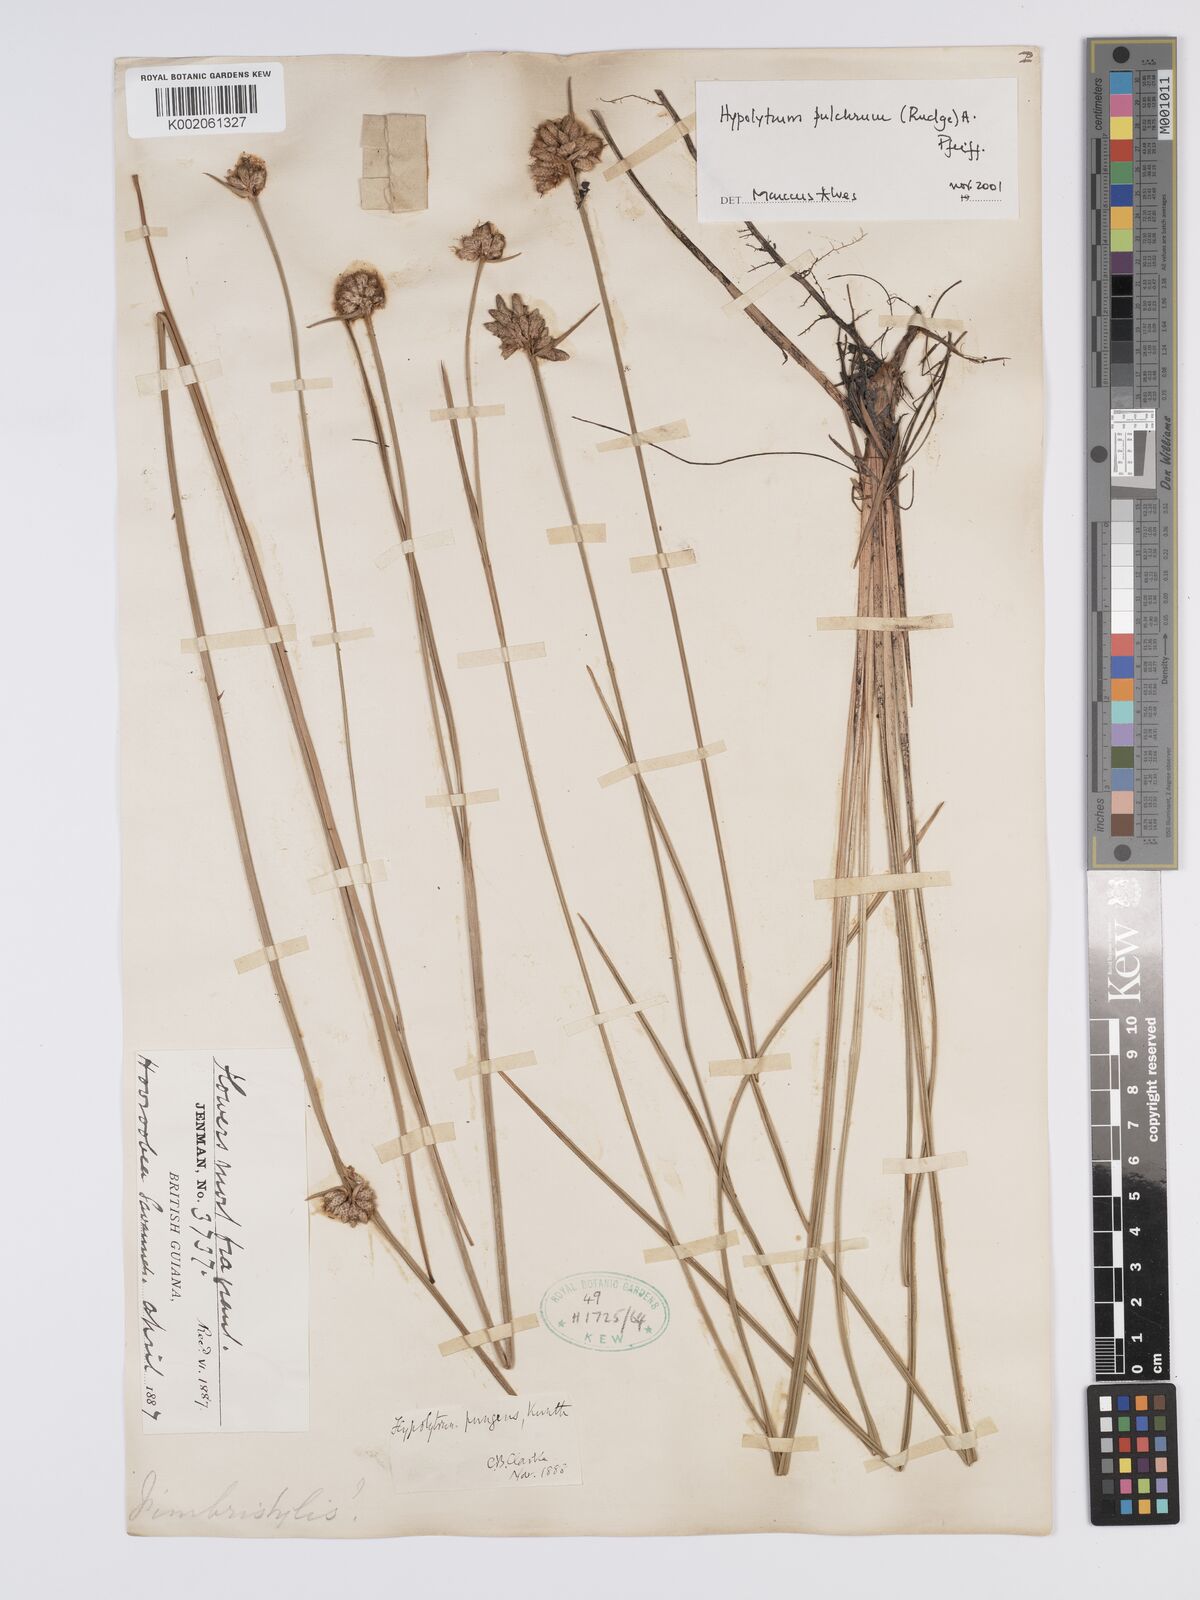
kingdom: Plantae
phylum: Tracheophyta
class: Liliopsida
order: Poales
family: Cyperaceae
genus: Hypolytrum
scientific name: Hypolytrum pulchrum
